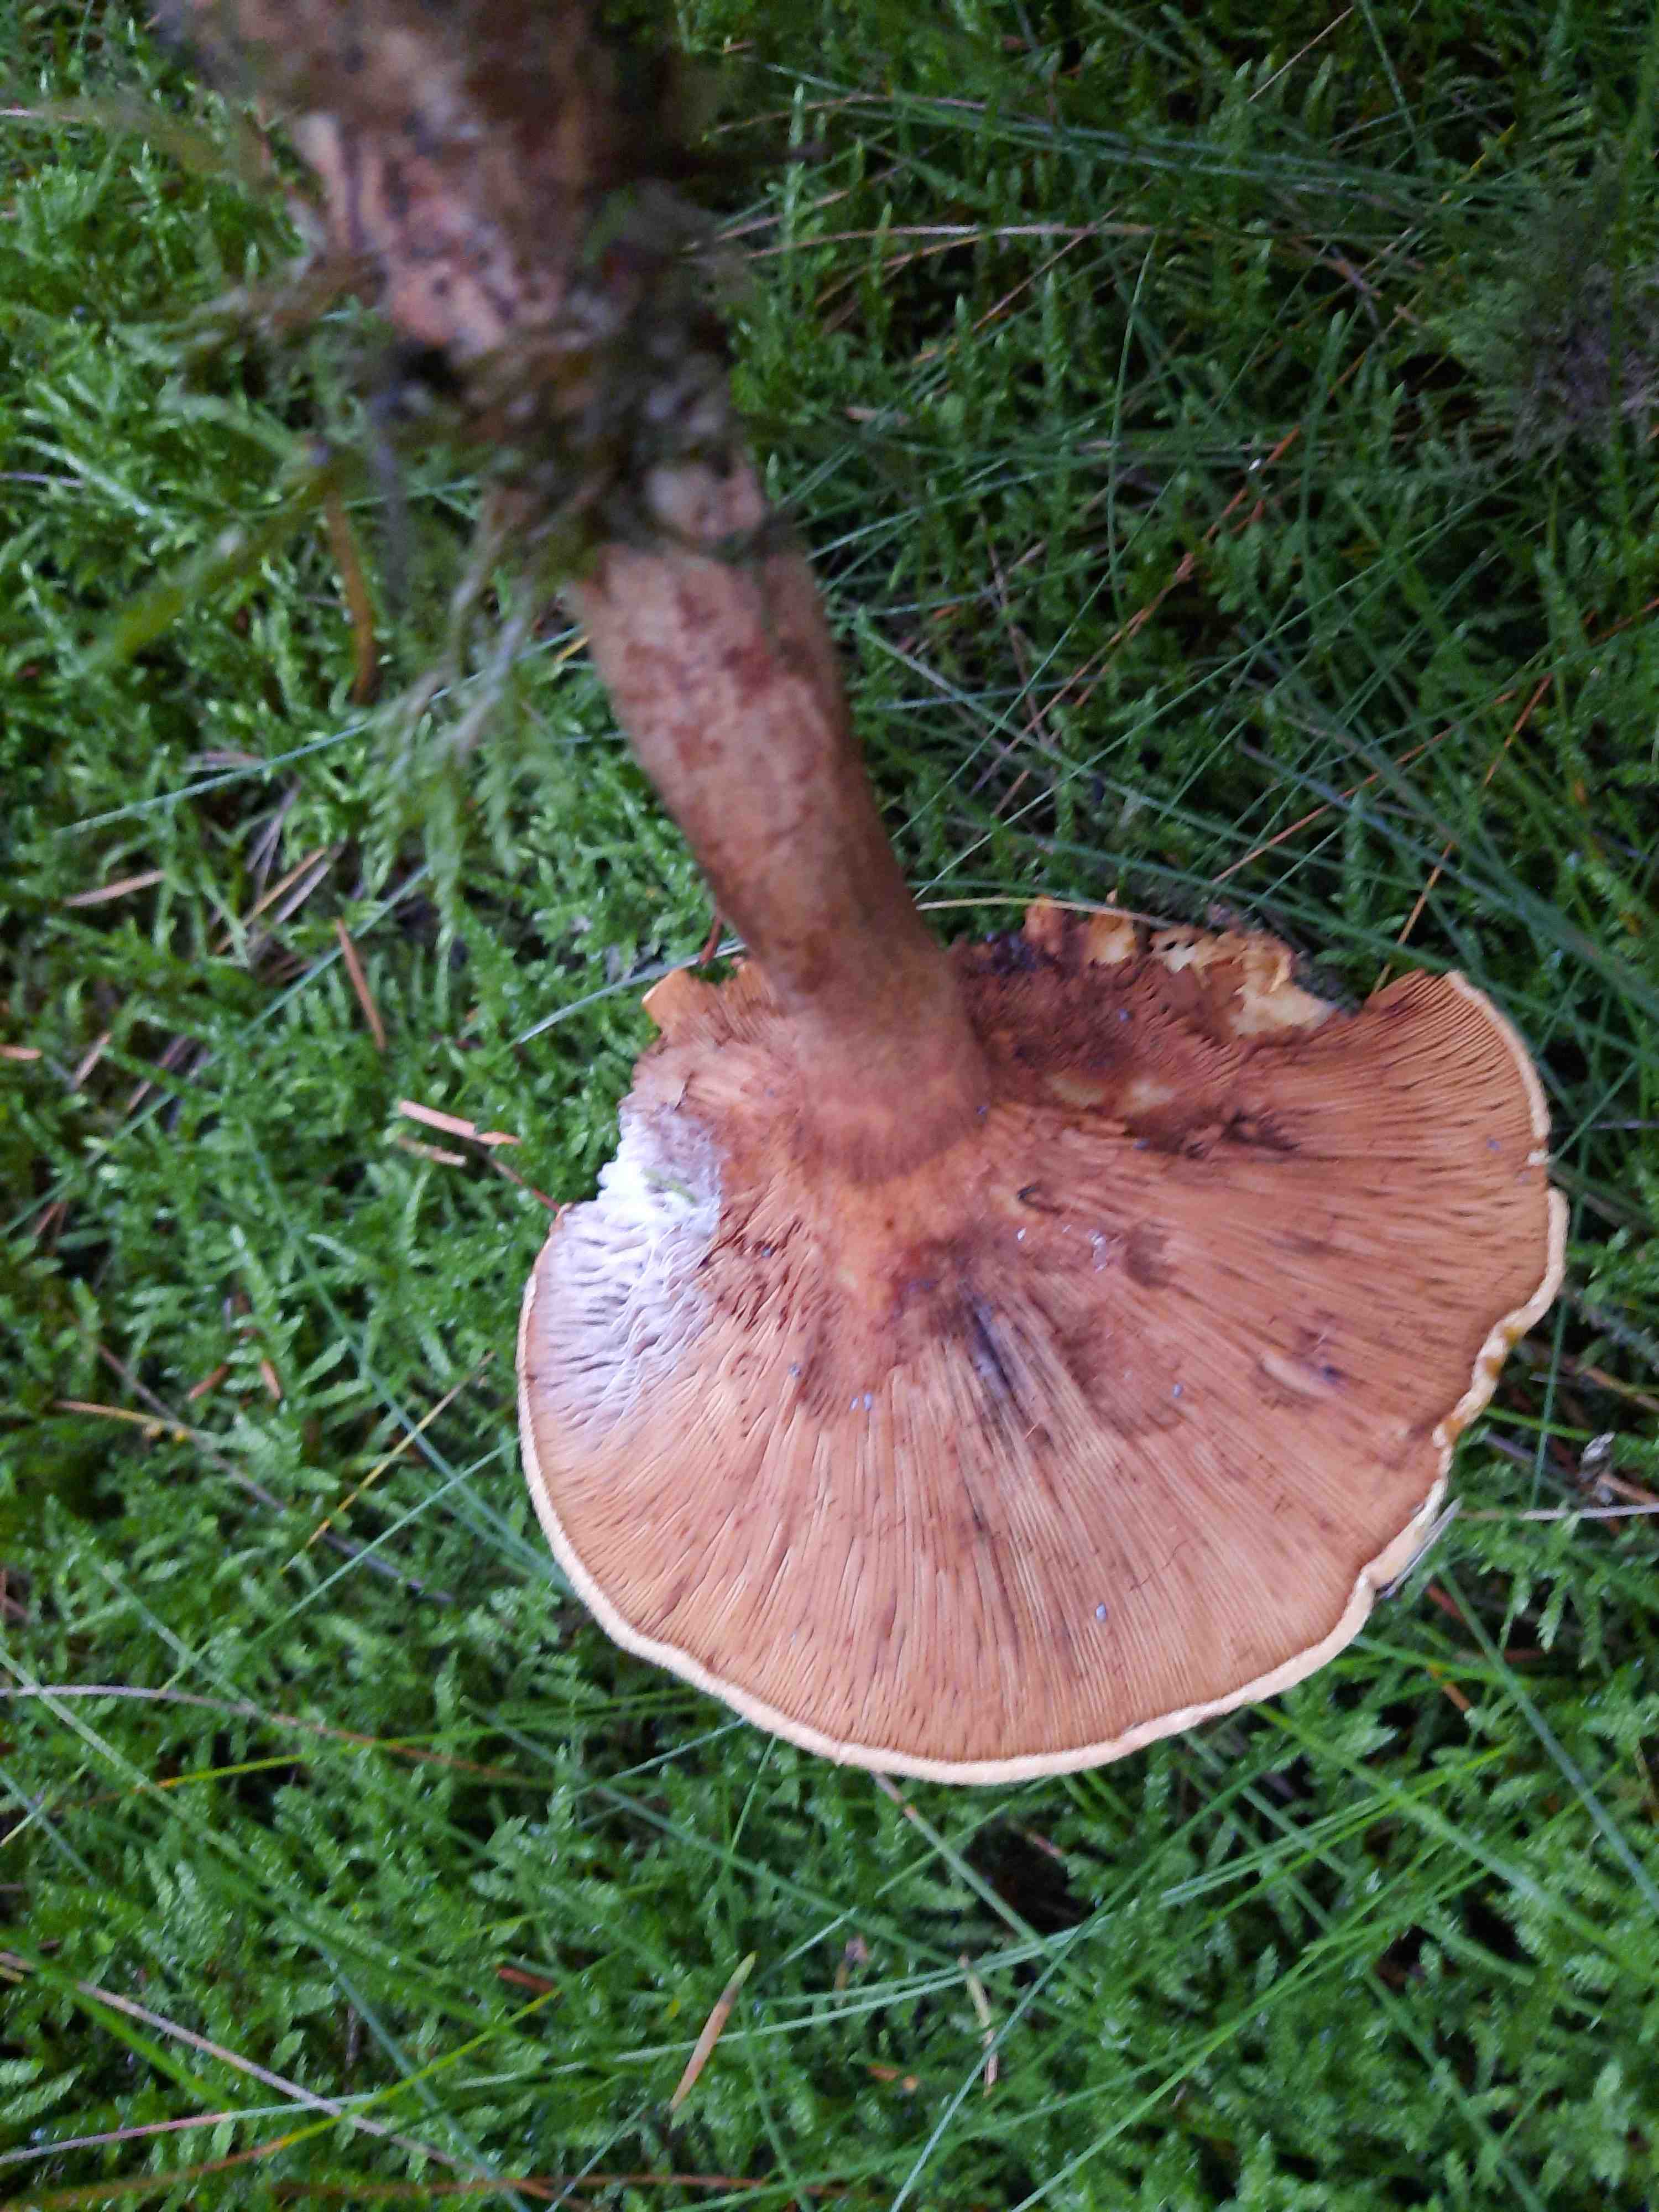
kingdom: Fungi
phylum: Basidiomycota
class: Agaricomycetes
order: Boletales
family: Paxillaceae
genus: Paxillus
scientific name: Paxillus involutus
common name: almindelig netbladhat
